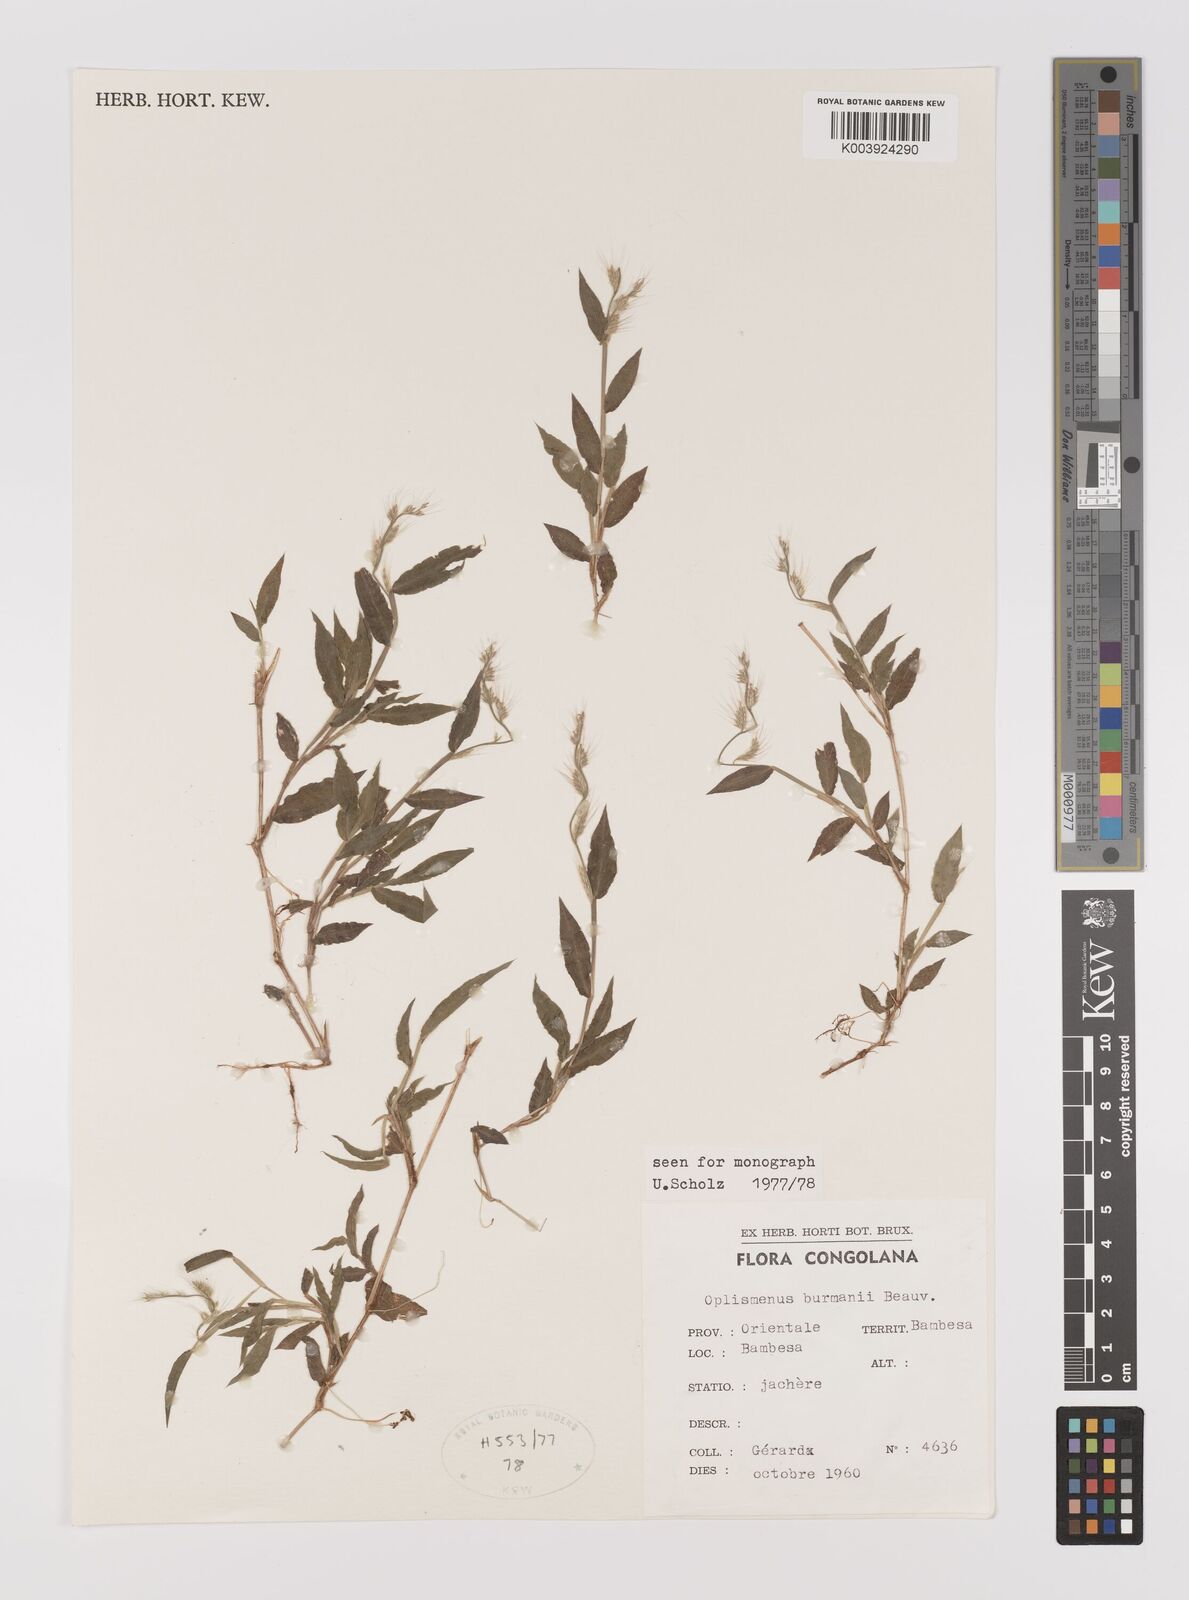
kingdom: Plantae
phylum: Tracheophyta
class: Liliopsida
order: Poales
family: Poaceae
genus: Oplismenus
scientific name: Oplismenus burmanni
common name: Burmann's basketgrass
